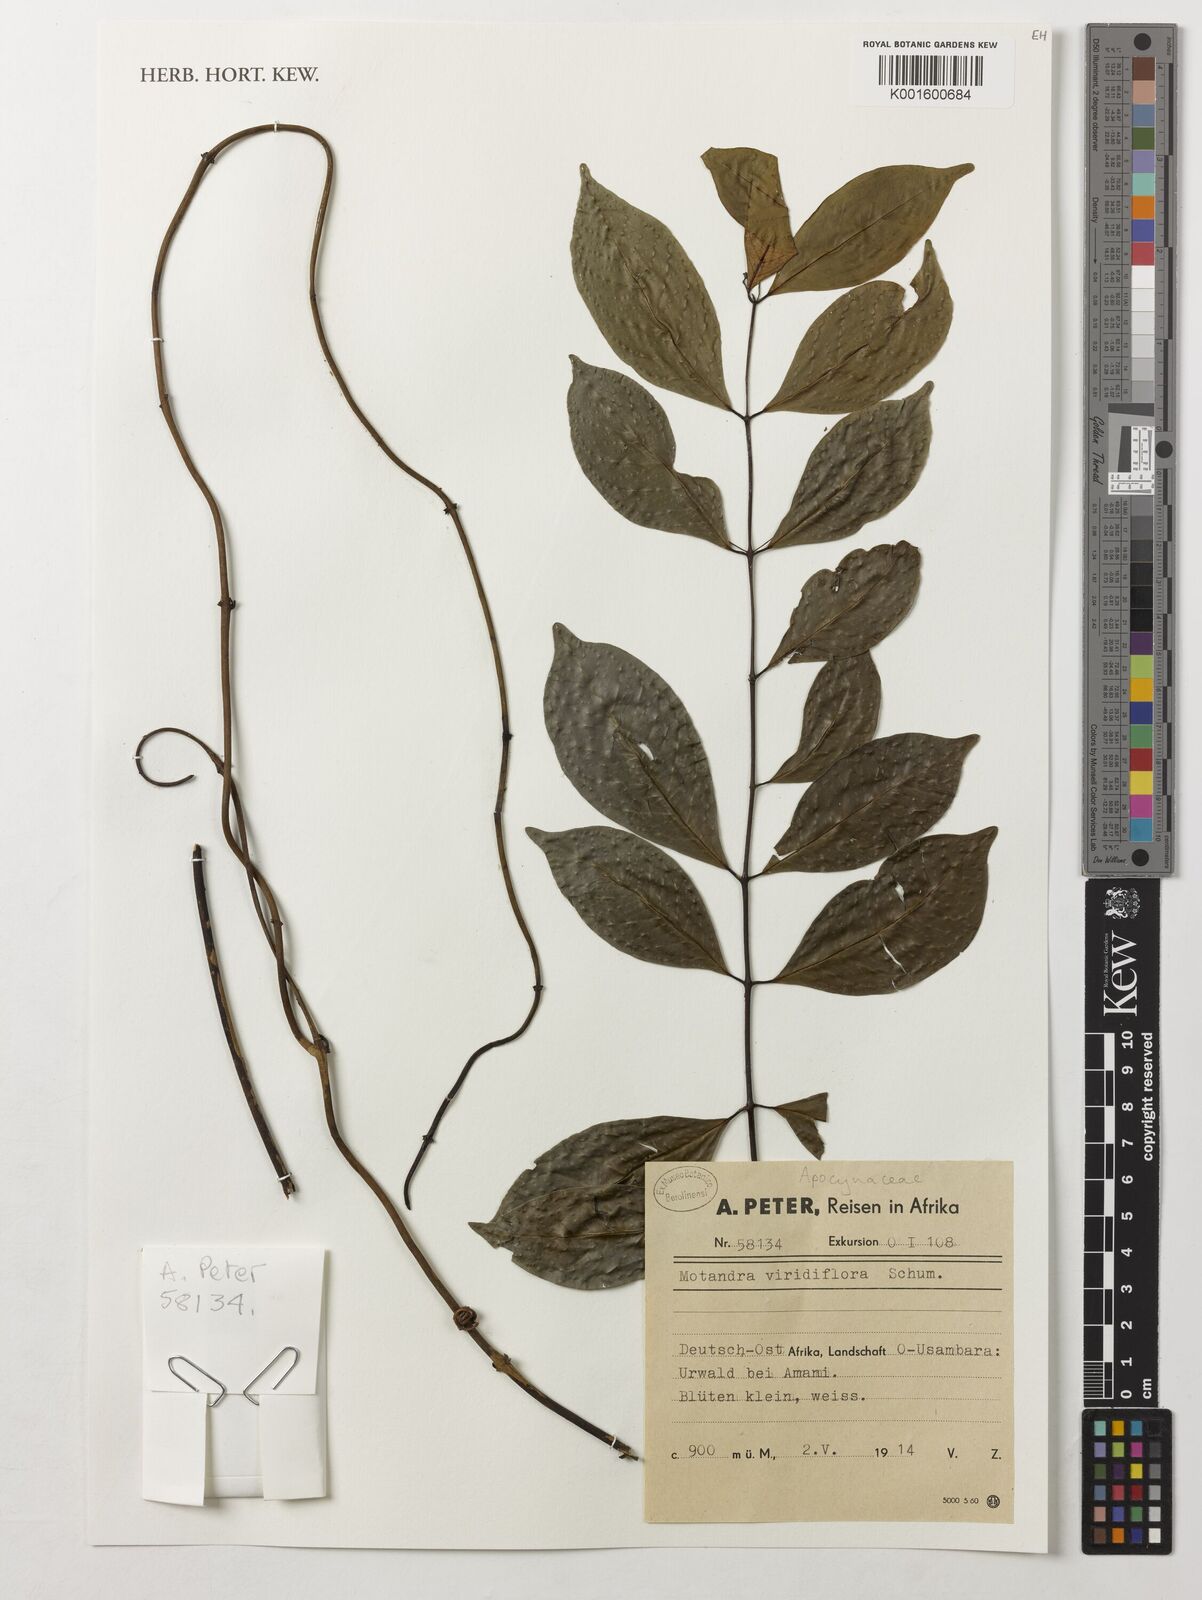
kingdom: Plantae
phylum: Tracheophyta
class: Magnoliopsida
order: Gentianales
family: Apocynaceae
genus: Baissea
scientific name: Baissea viridiflora
